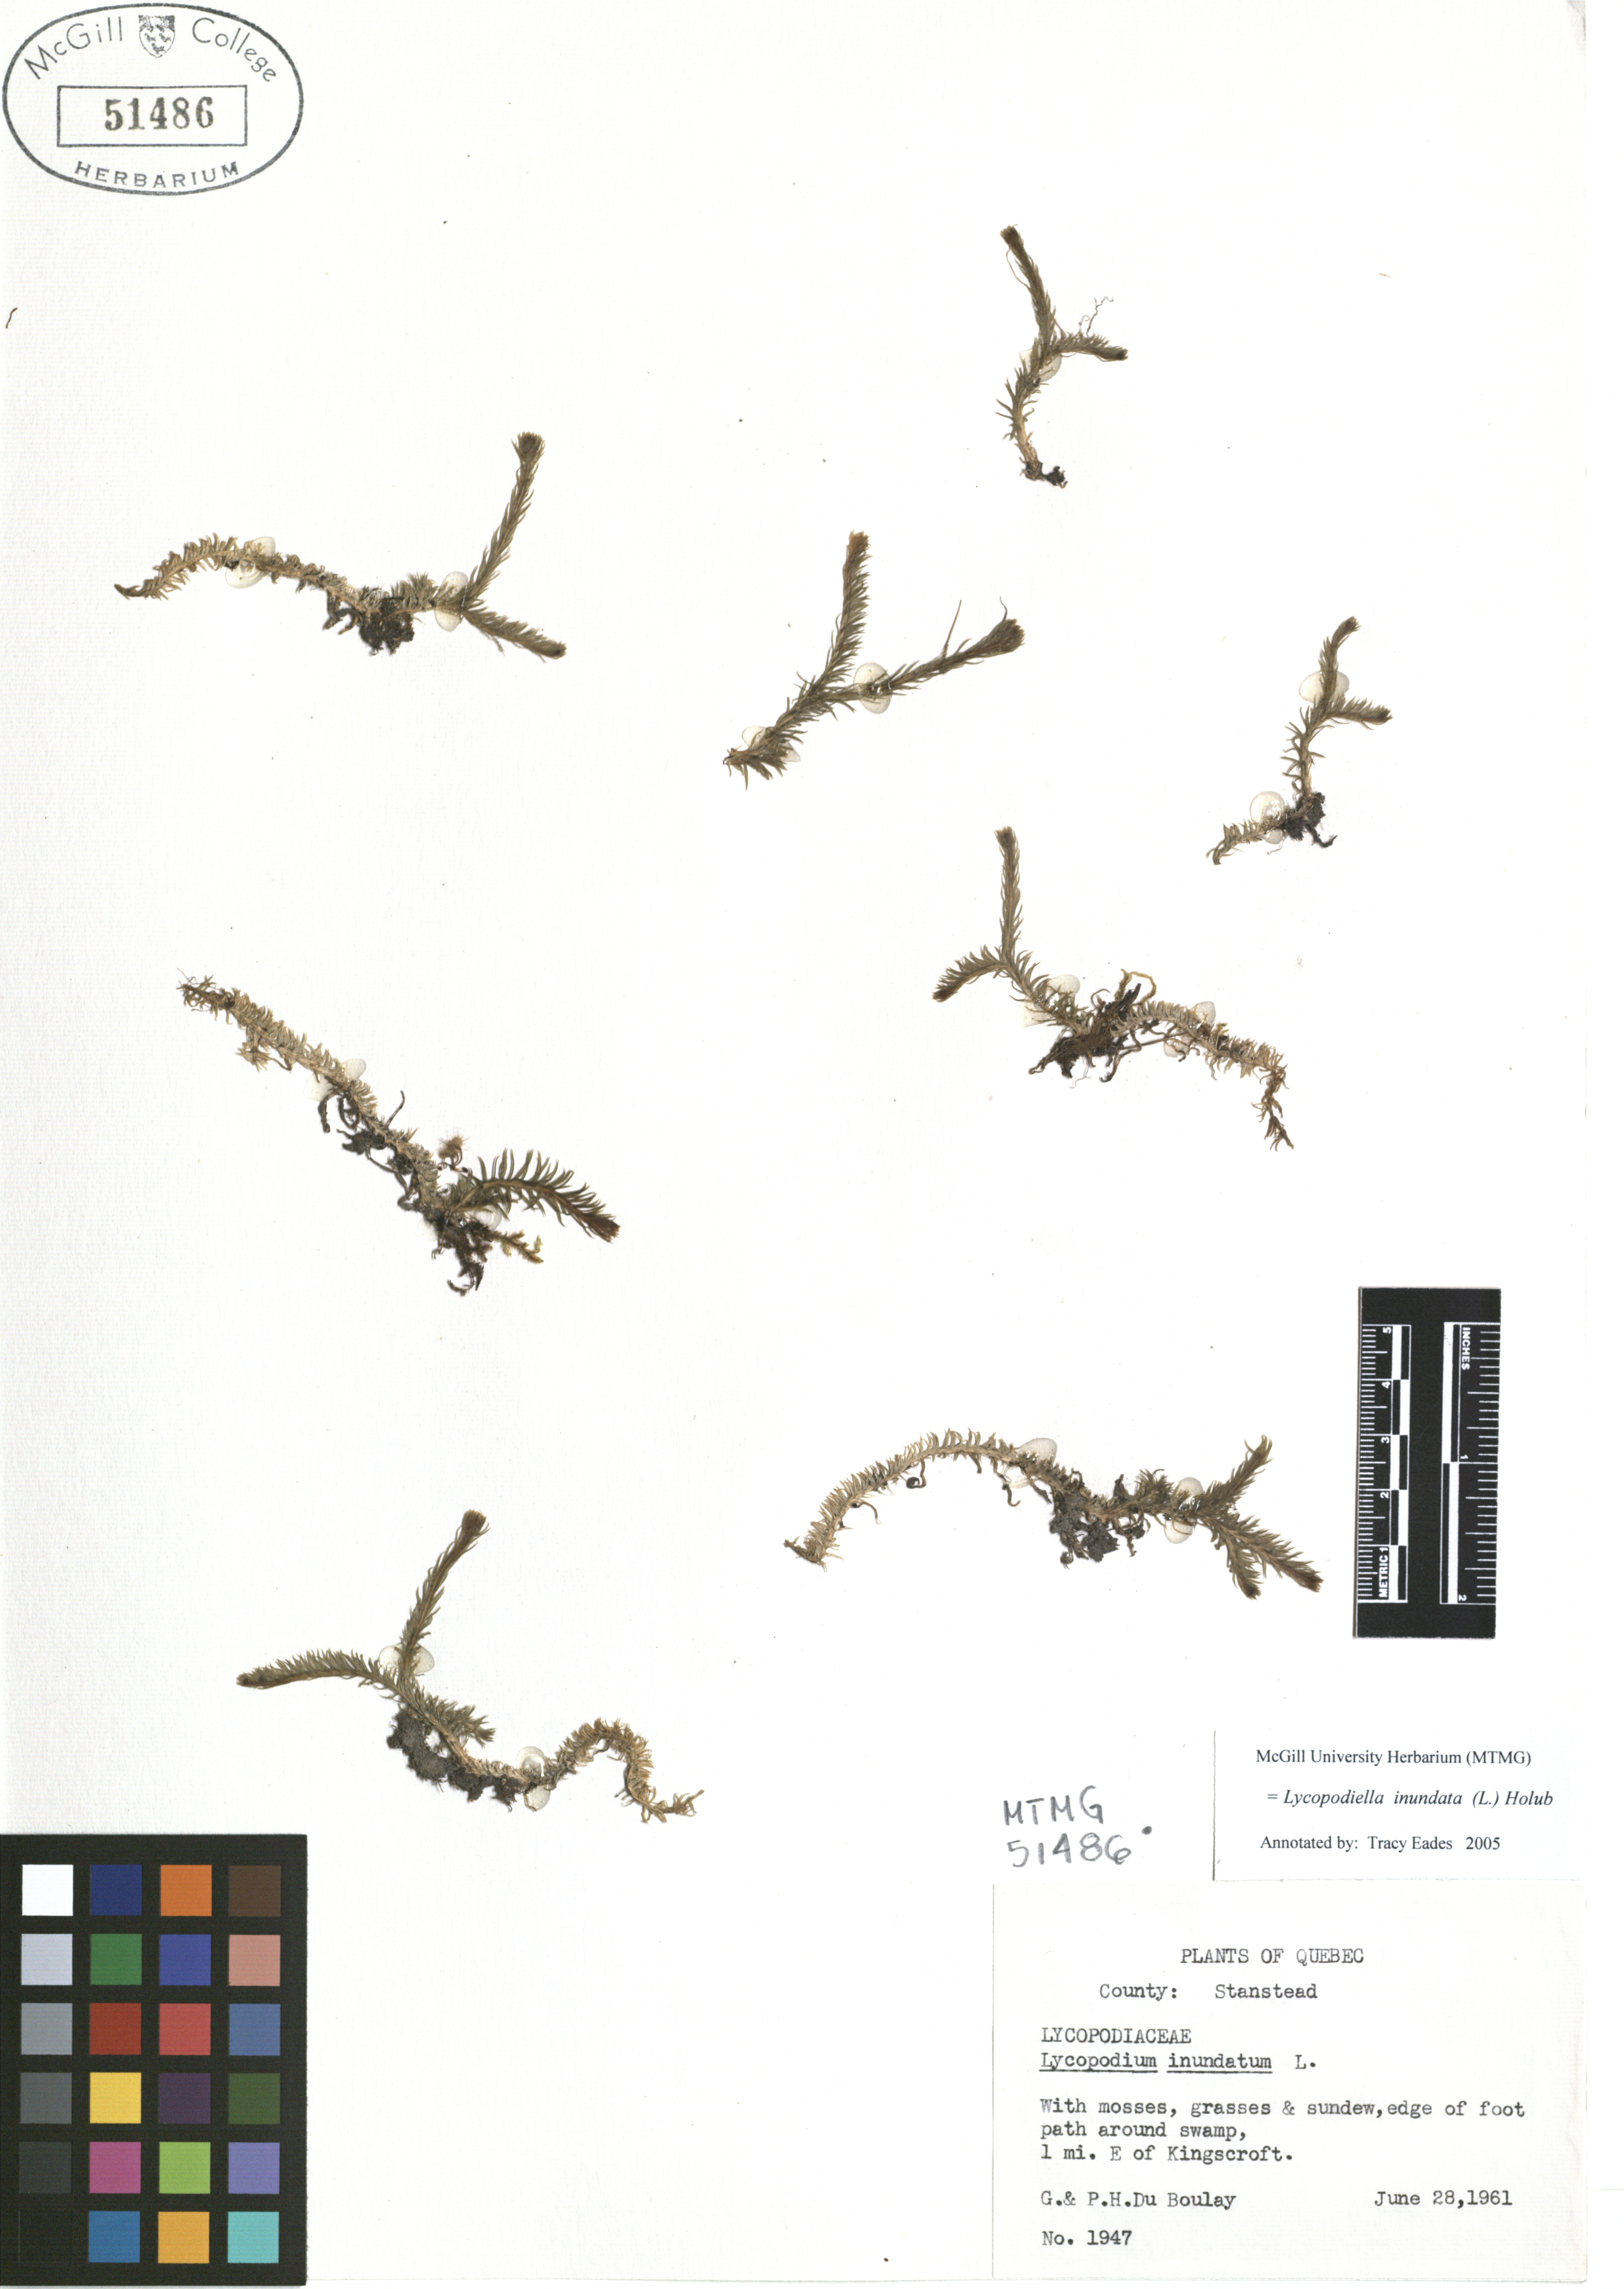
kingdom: Plantae
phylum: Tracheophyta
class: Lycopodiopsida
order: Lycopodiales
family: Lycopodiaceae
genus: Lycopodiella
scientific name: Lycopodiella inundata
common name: Marsh clubmoss
